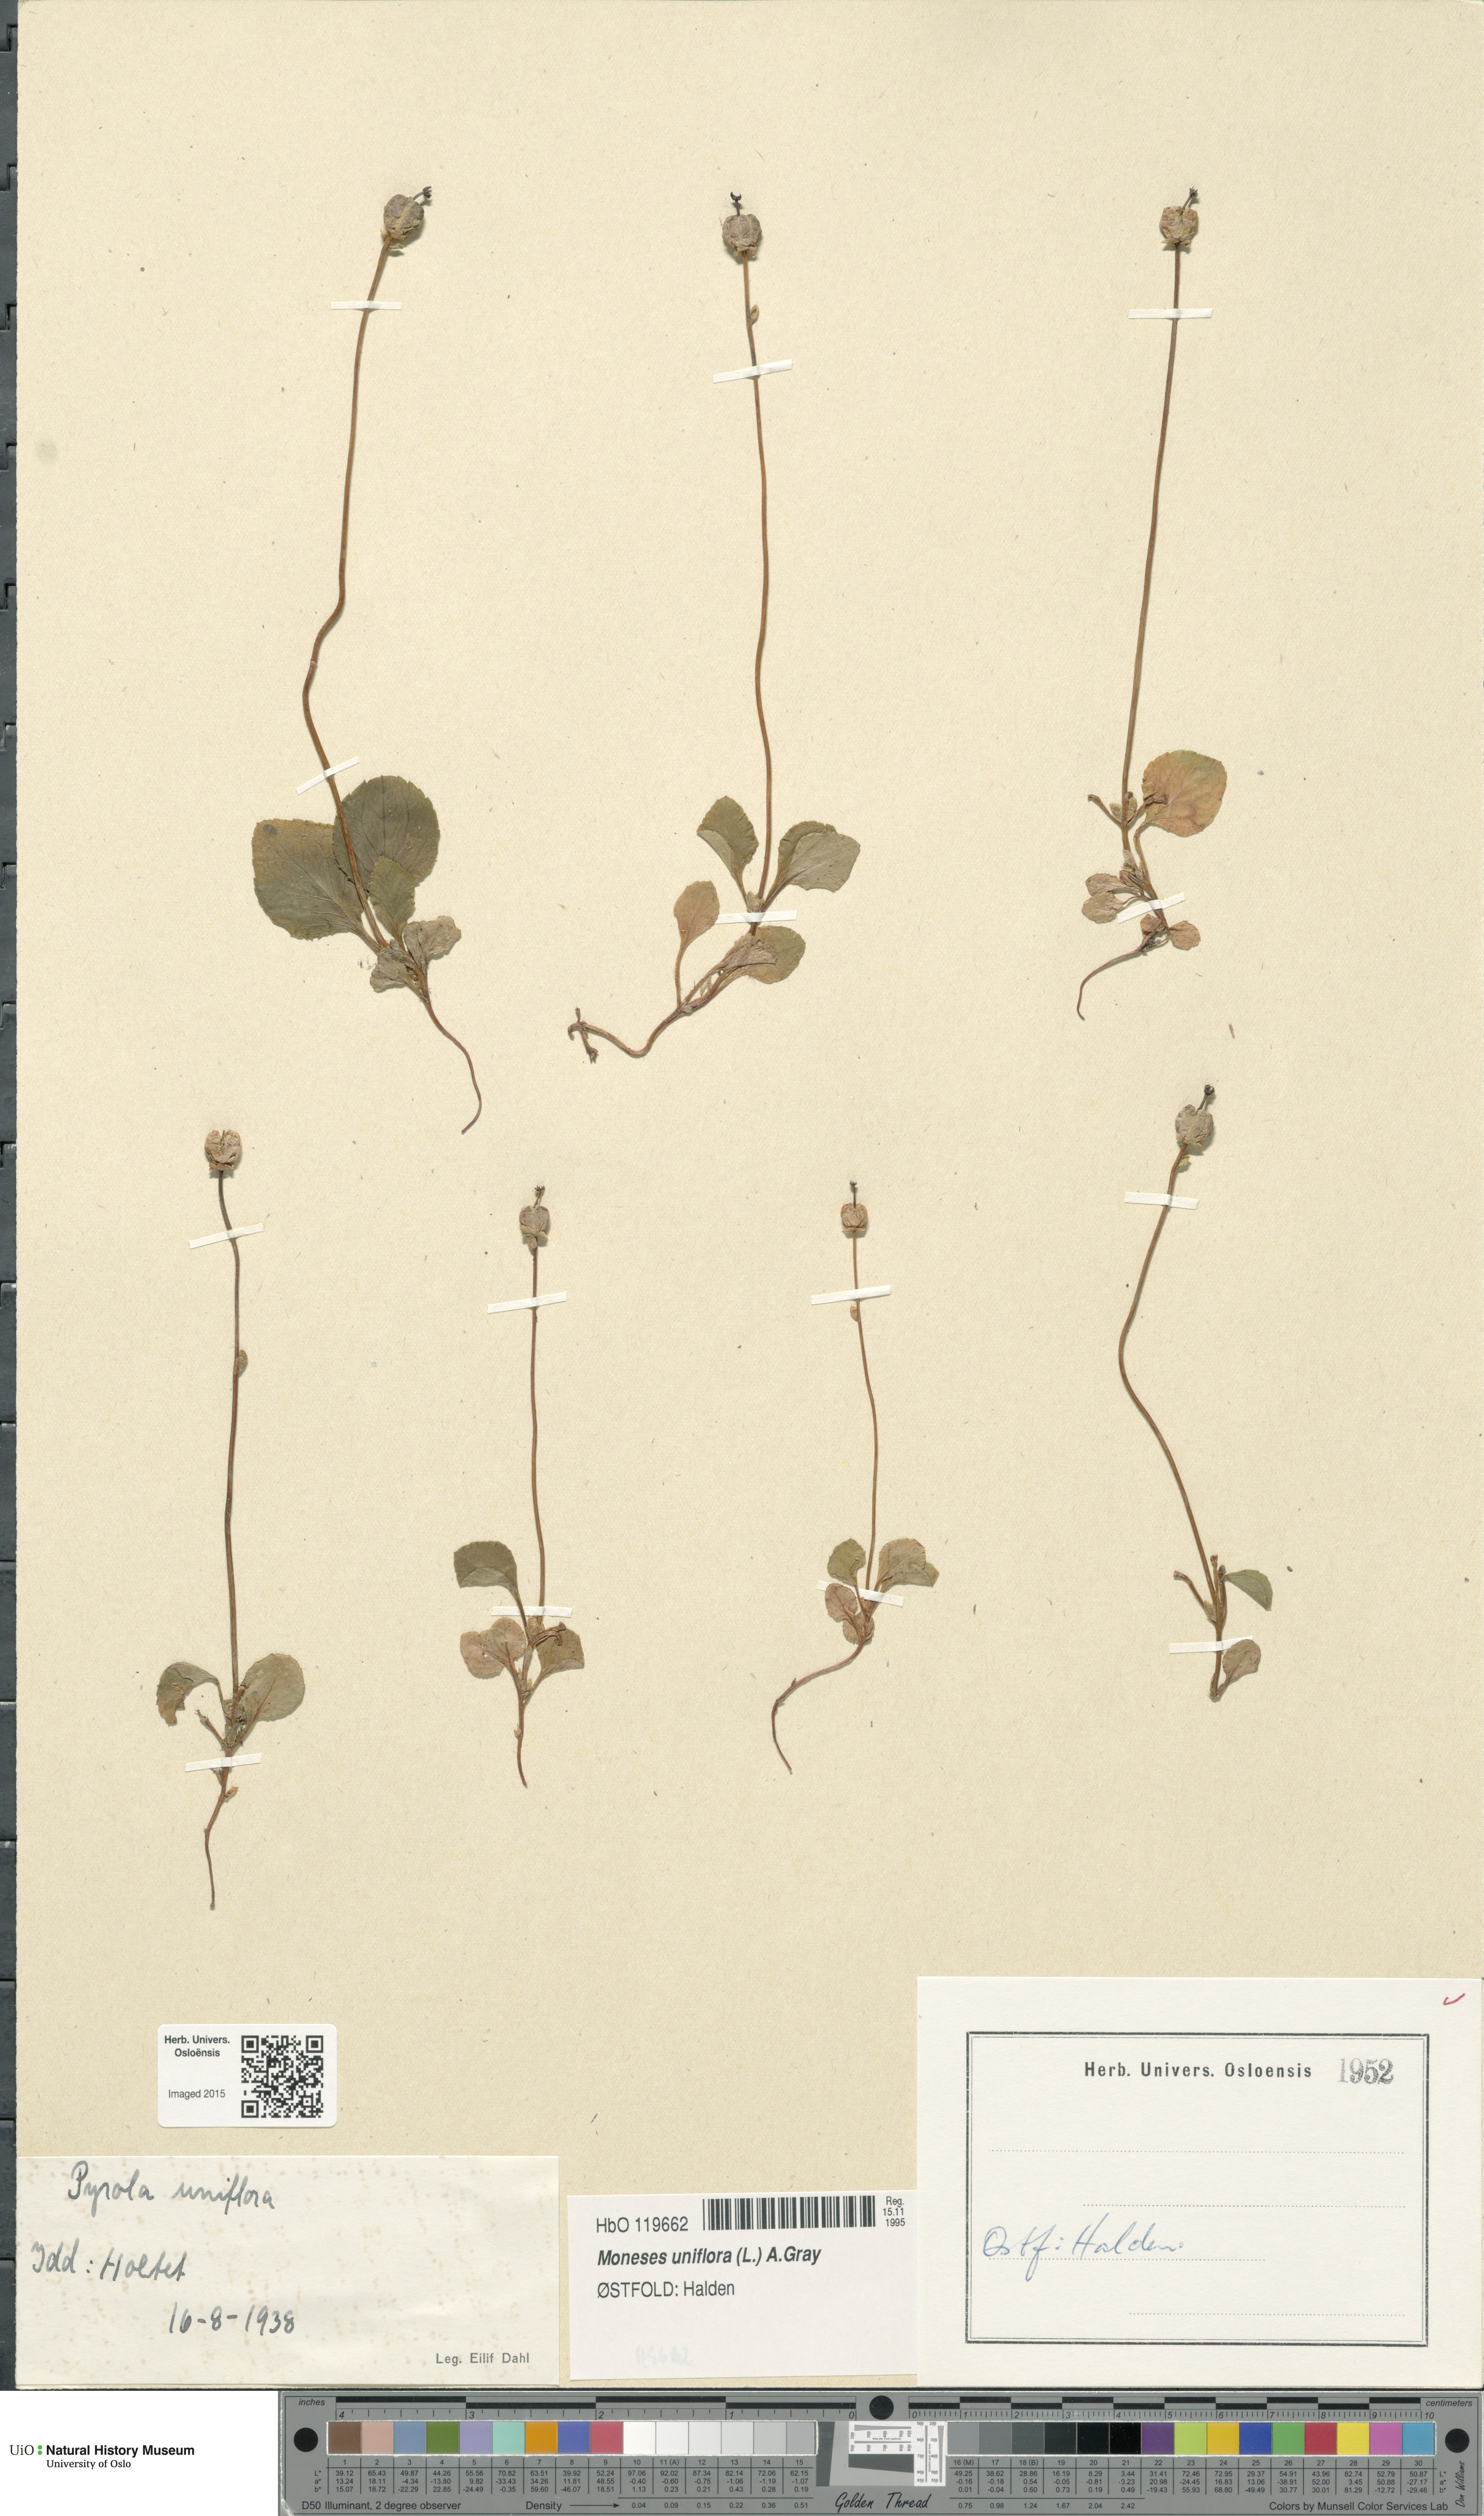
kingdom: Plantae
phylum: Tracheophyta
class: Magnoliopsida
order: Ericales
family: Ericaceae
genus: Moneses
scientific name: Moneses uniflora
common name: One-flowered wintergreen
